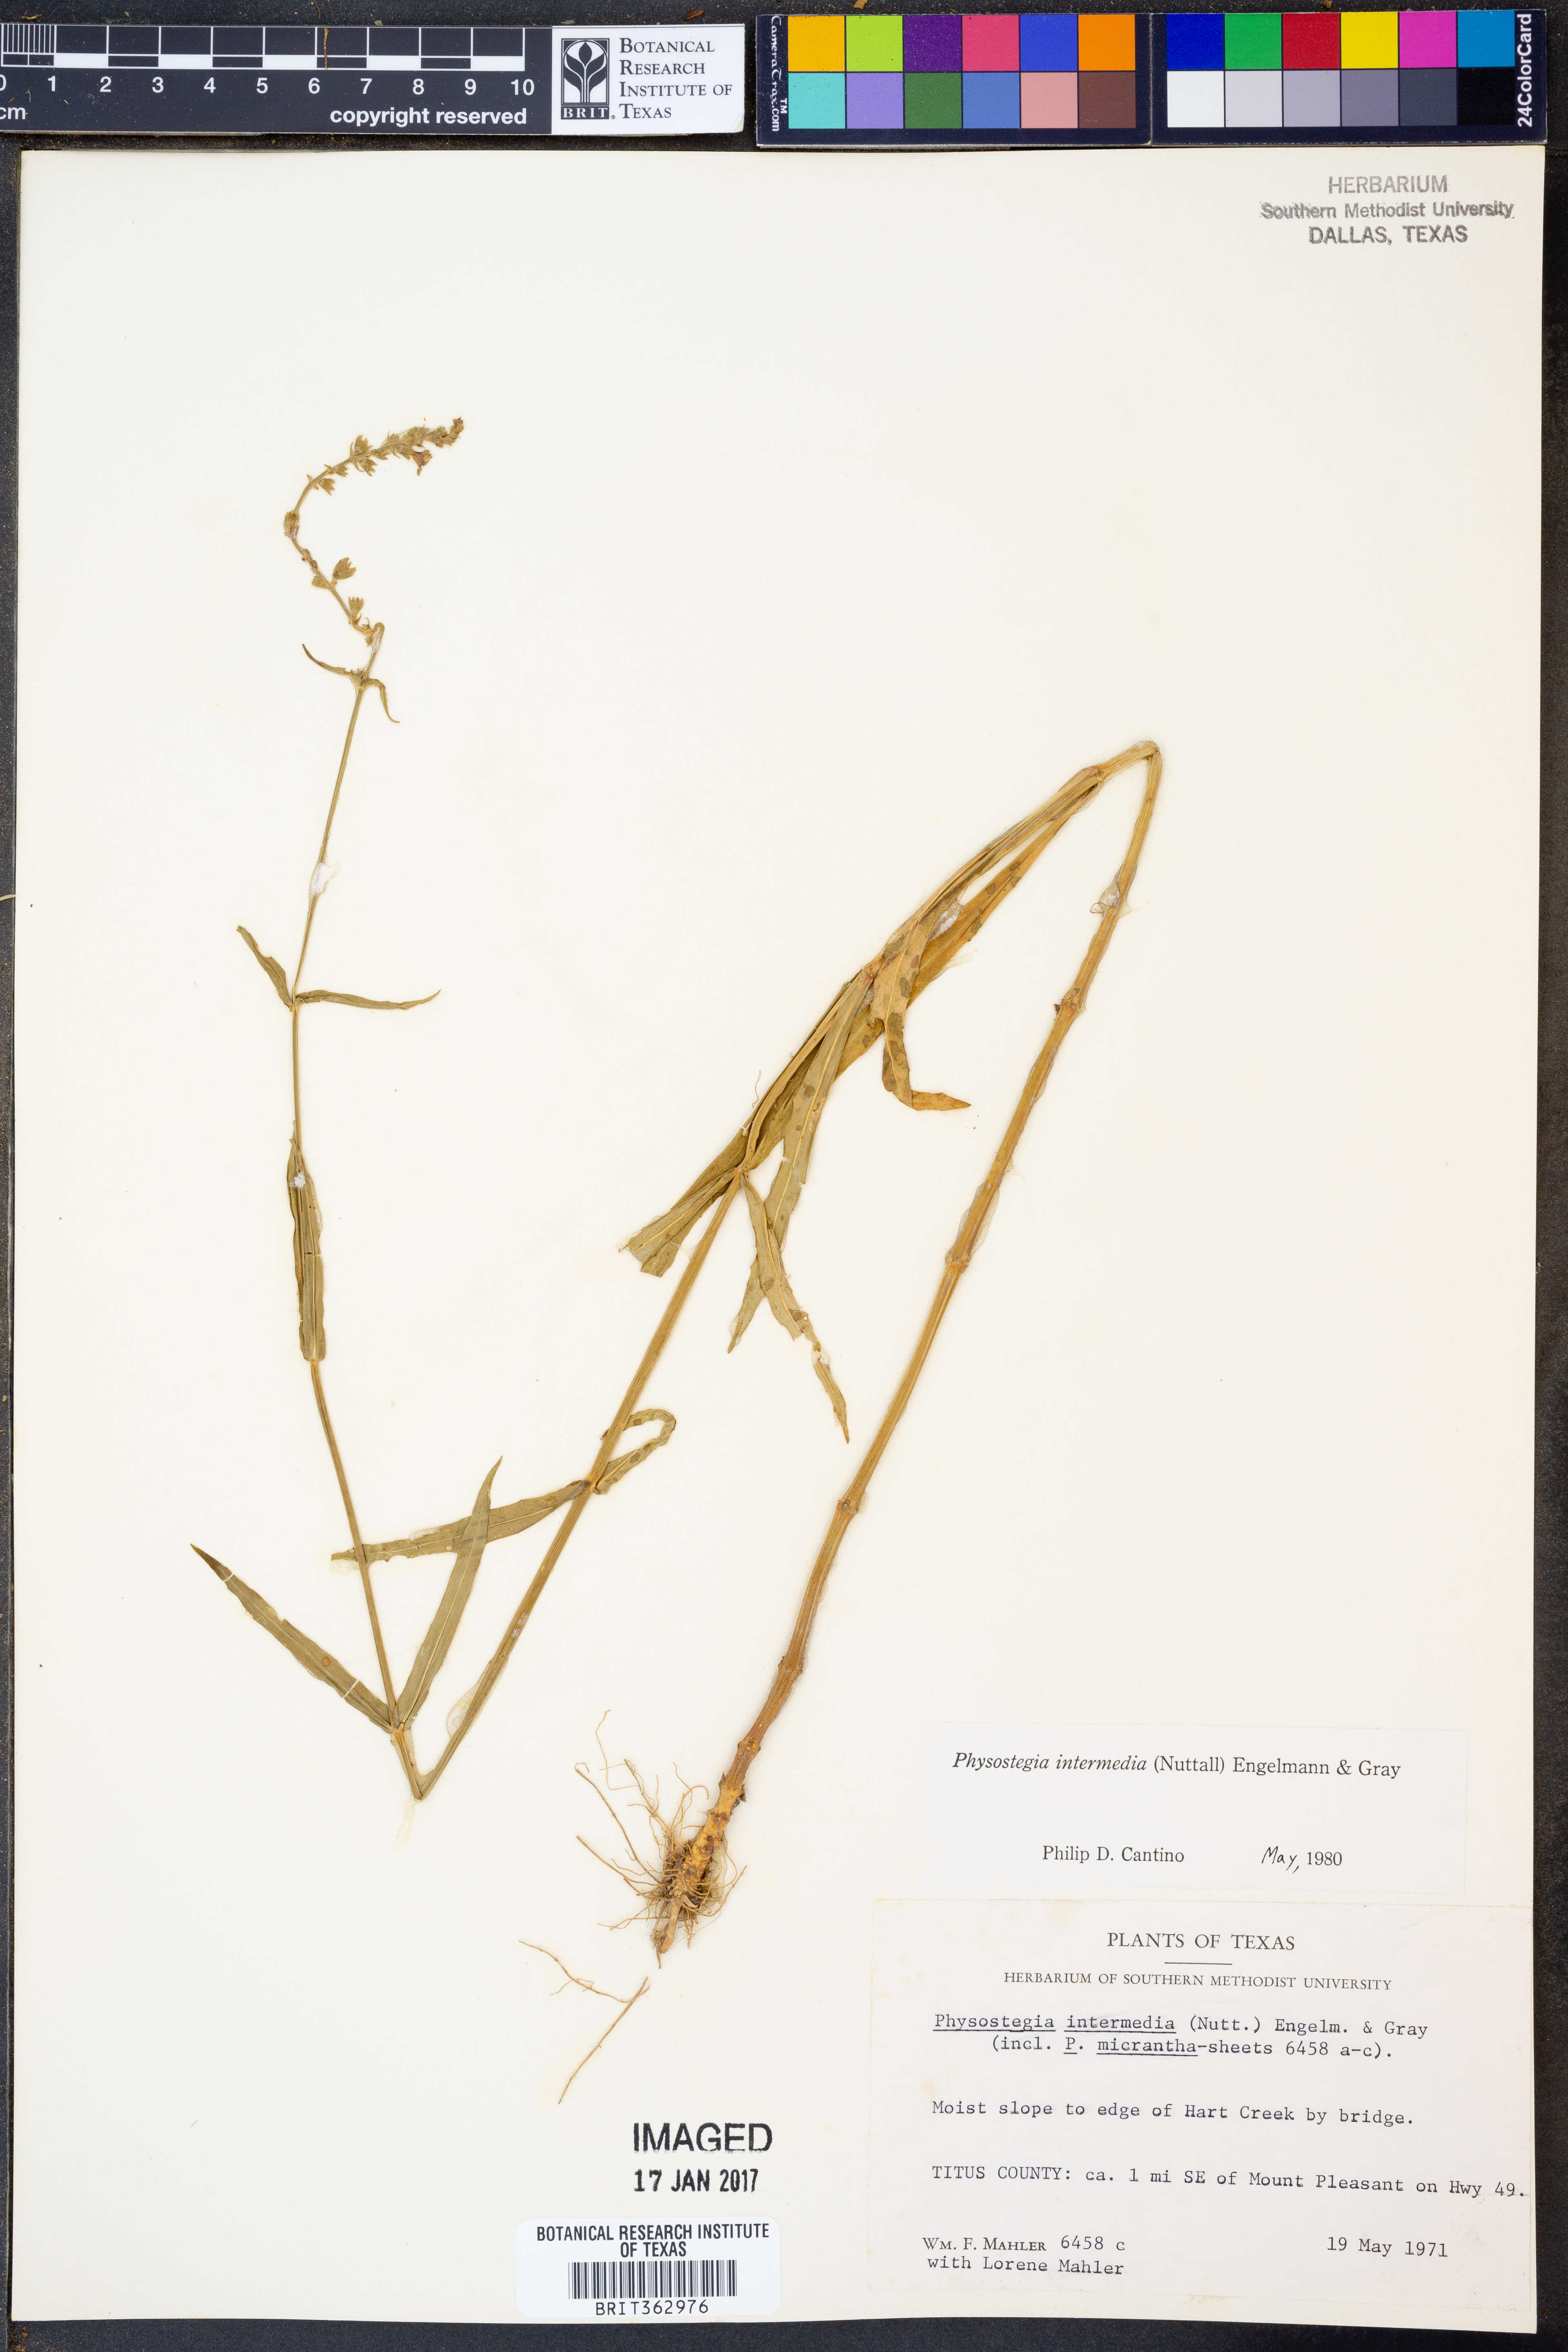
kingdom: Plantae
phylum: Tracheophyta
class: Magnoliopsida
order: Lamiales
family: Lamiaceae
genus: Physostegia
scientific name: Physostegia intermedia
